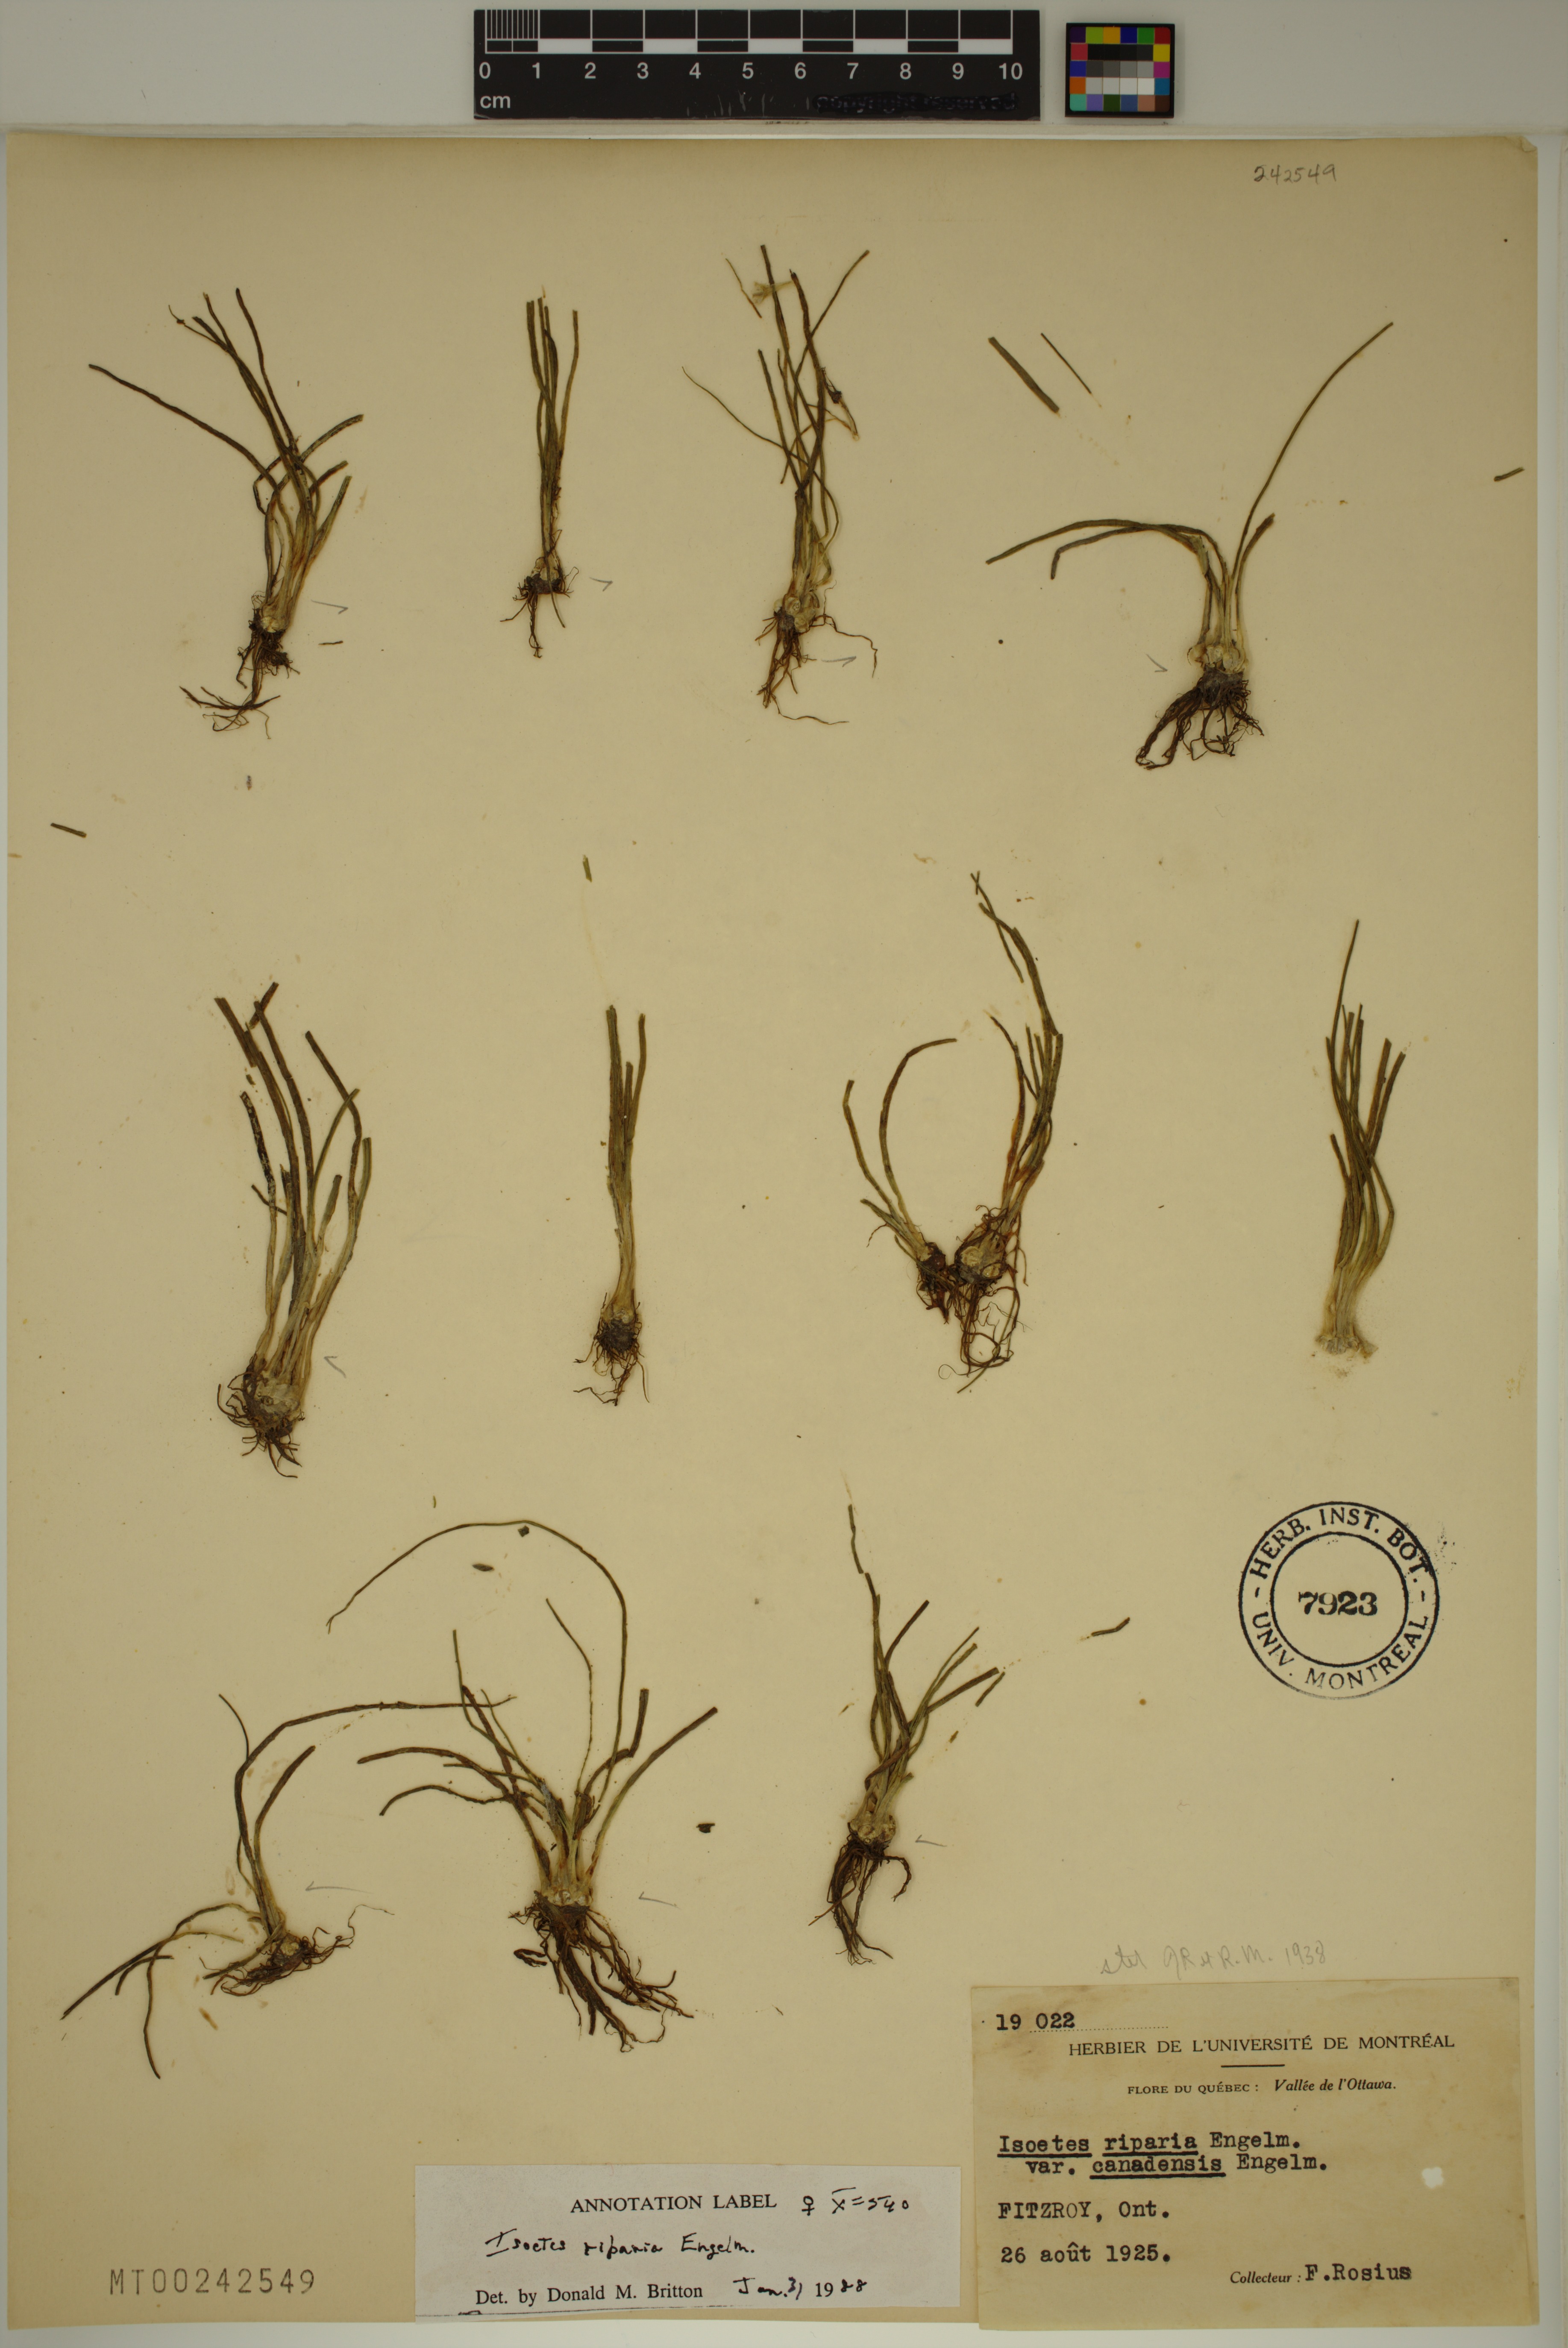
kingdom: Plantae
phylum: Tracheophyta
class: Lycopodiopsida
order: Isoetales
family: Isoetaceae
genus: Isoetes
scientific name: Isoetes septentrionalis
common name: Northern quillwort
